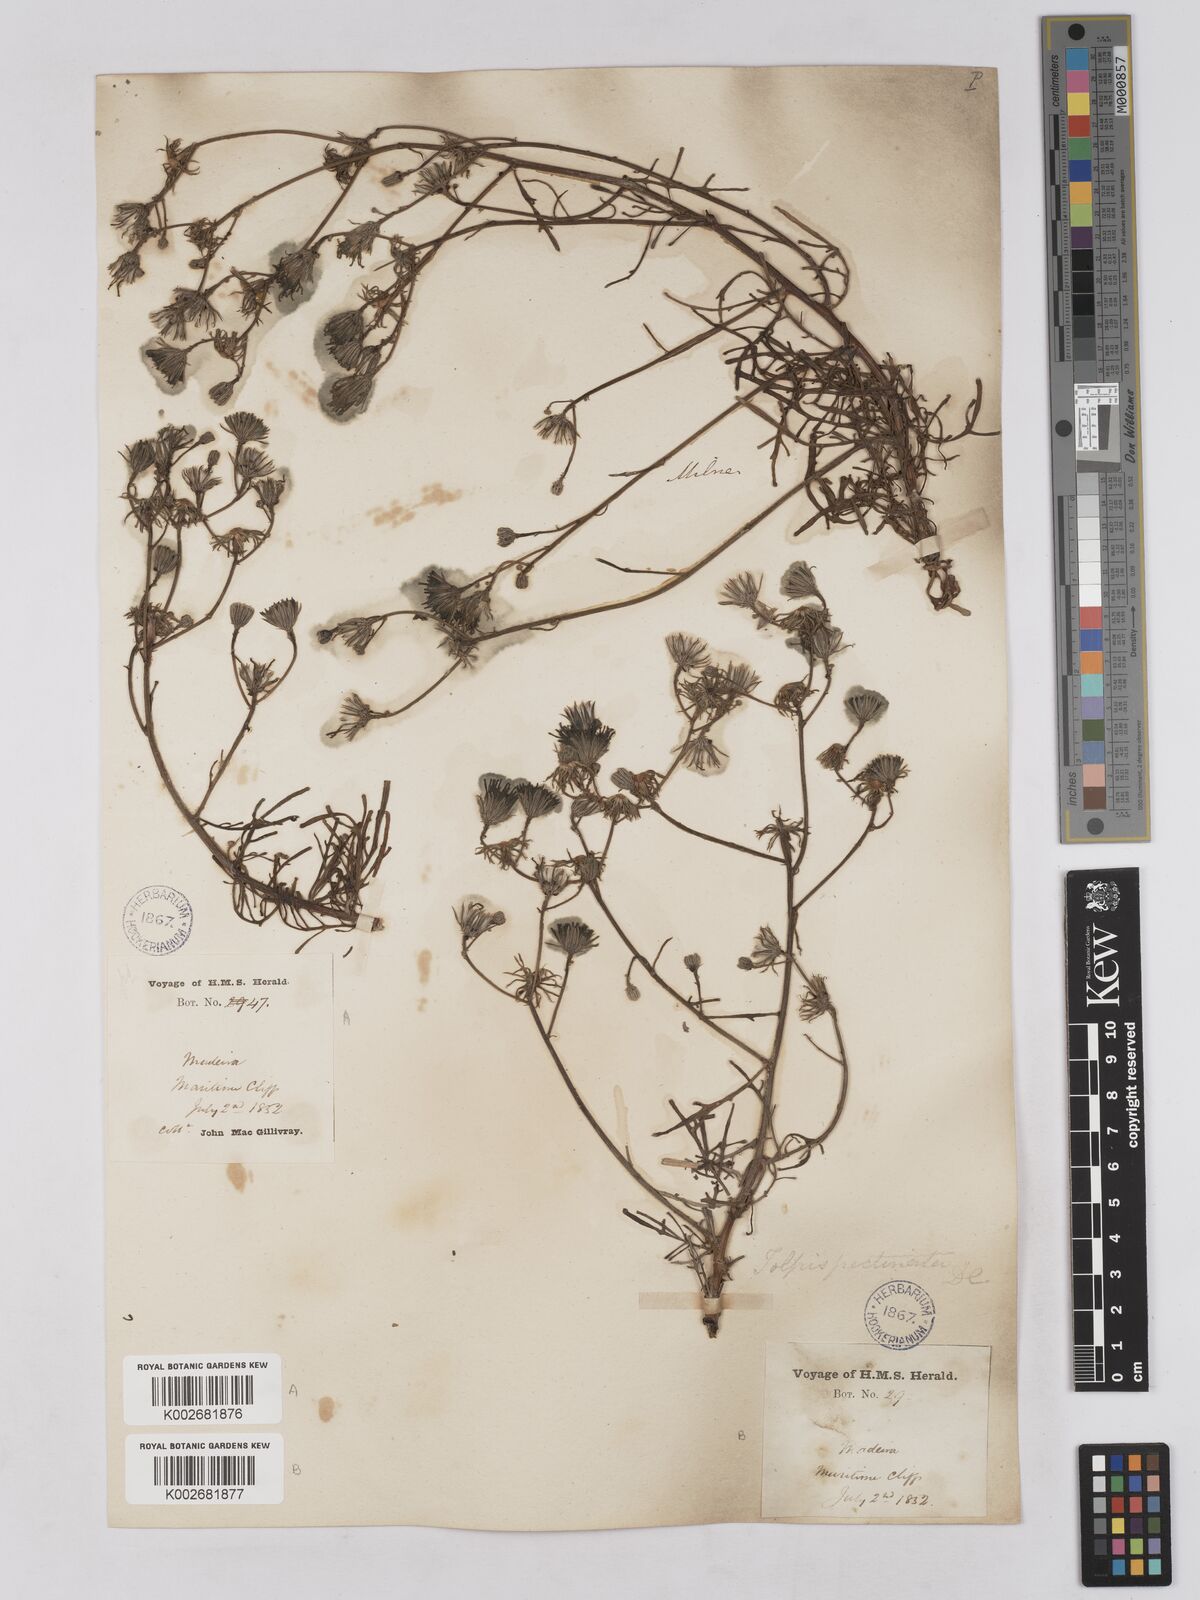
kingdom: Plantae
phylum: Tracheophyta
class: Magnoliopsida
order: Asterales
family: Asteraceae
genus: Tolpis
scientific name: Tolpis
